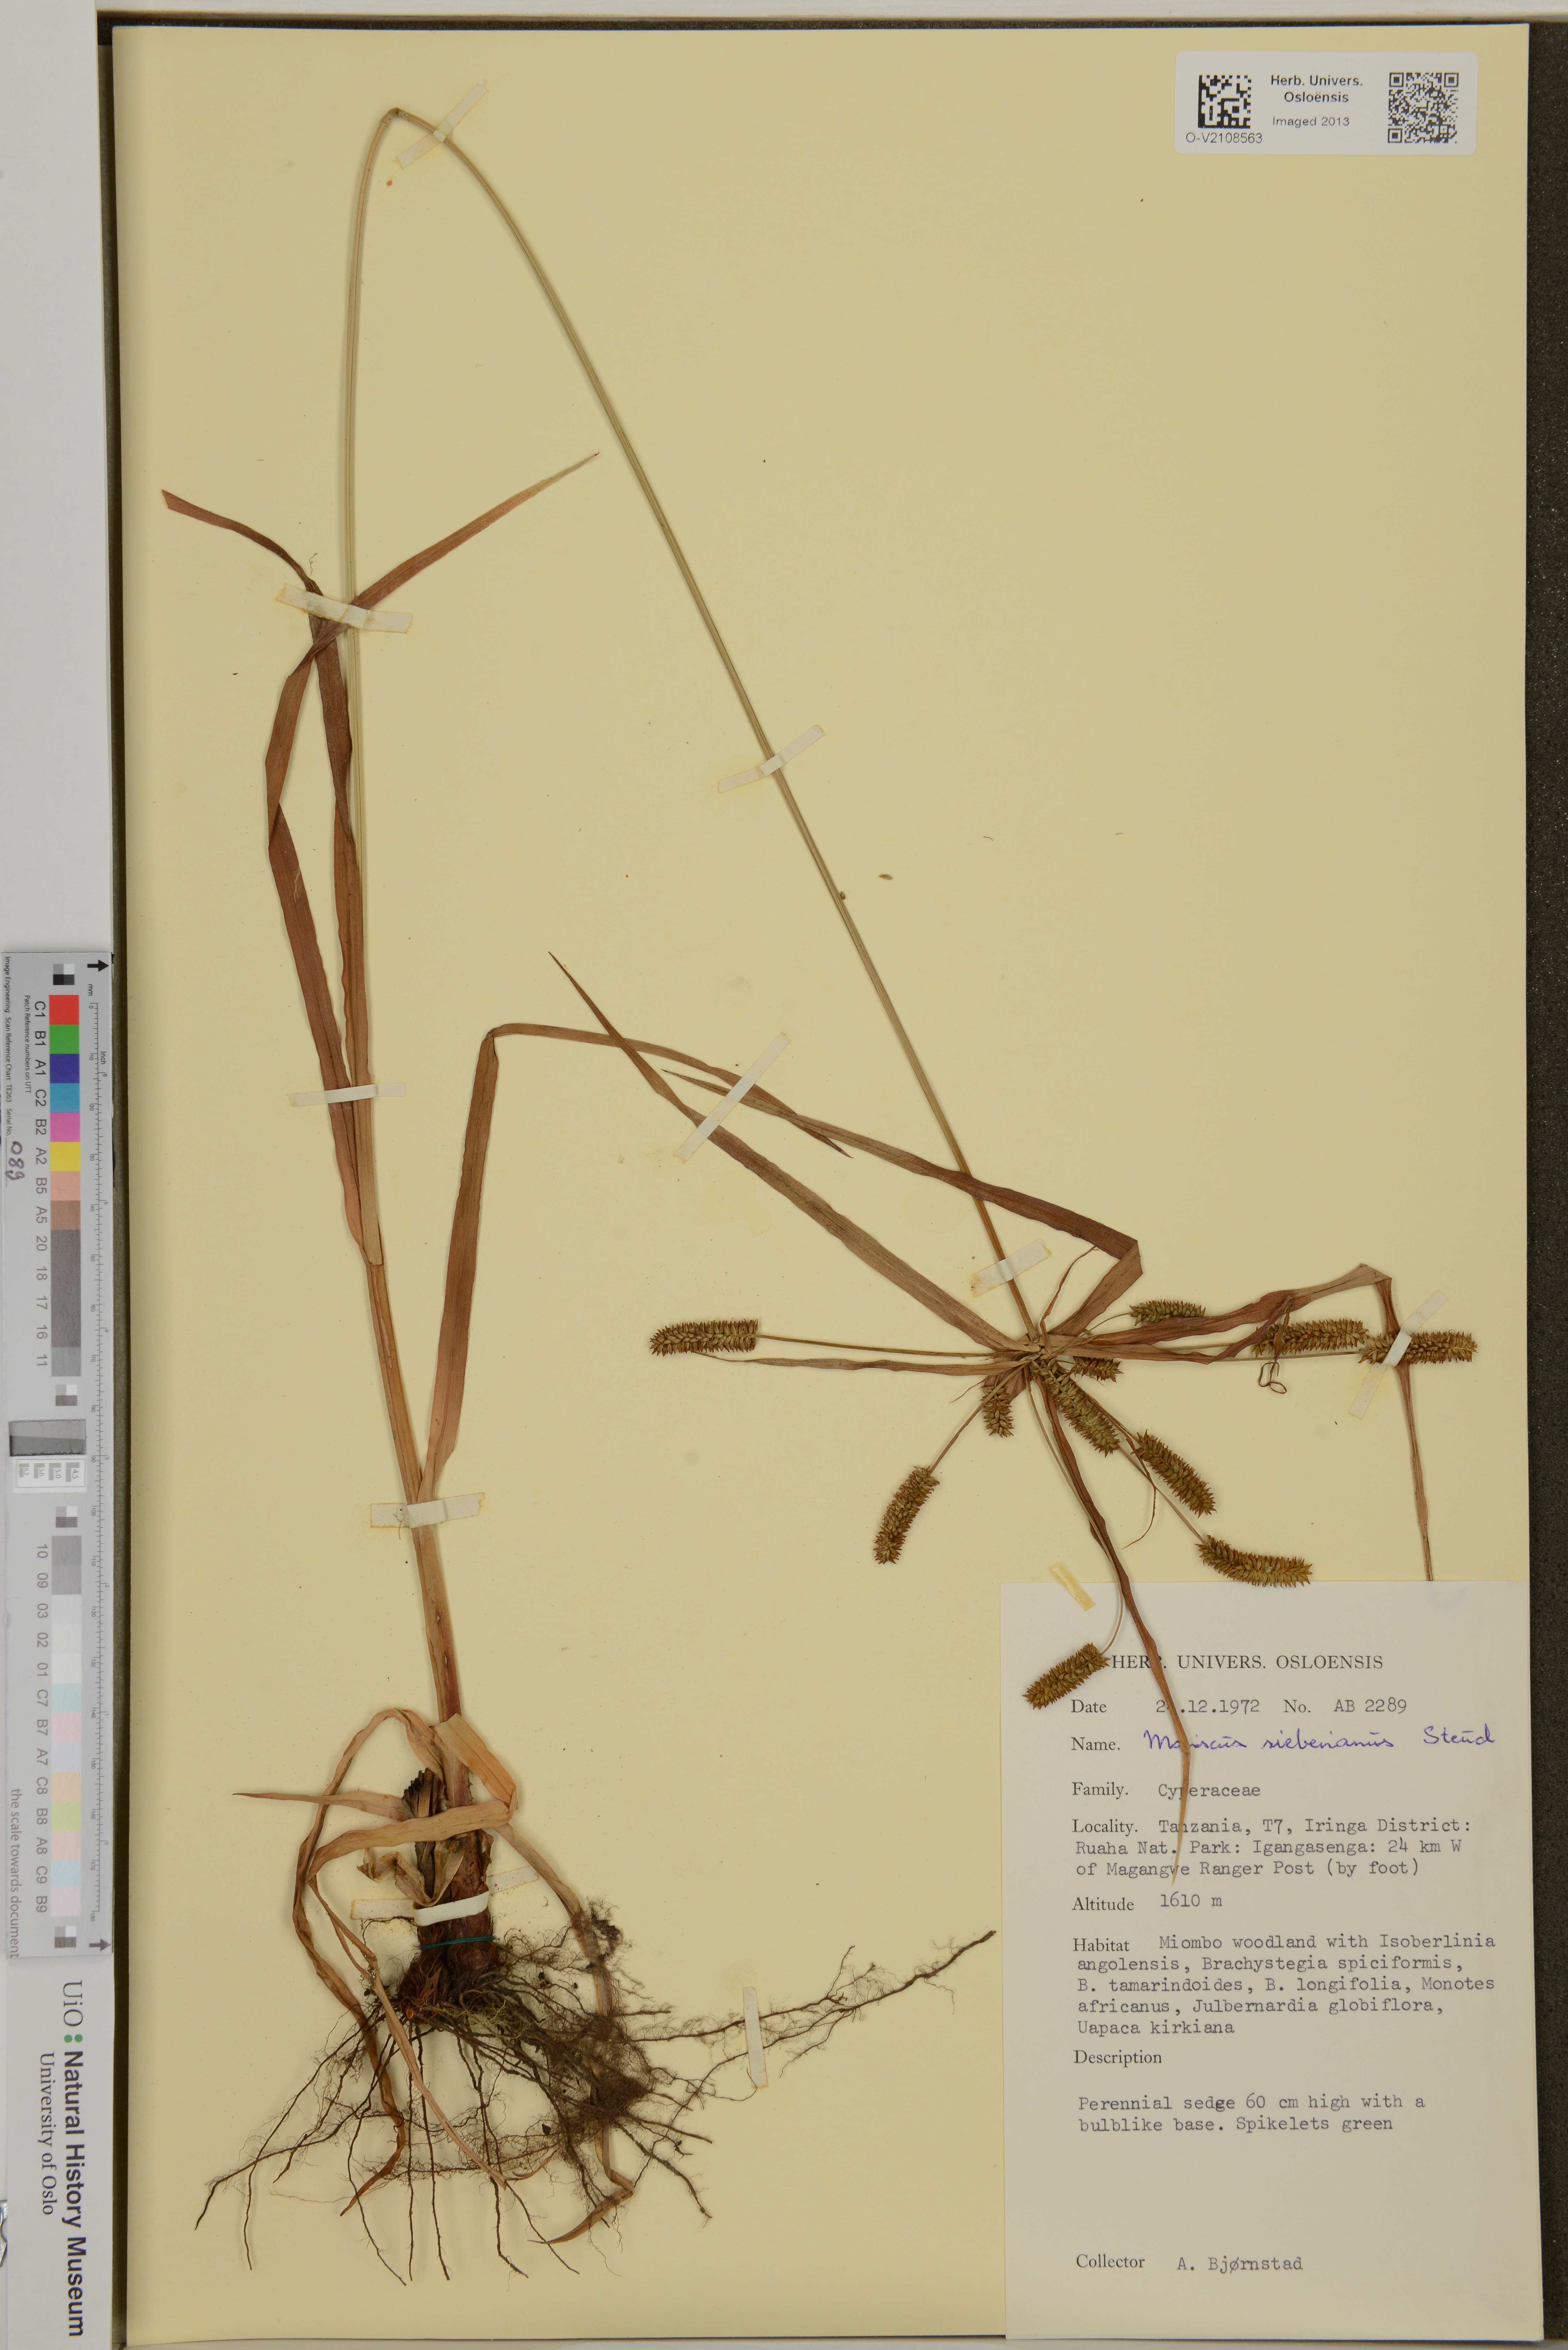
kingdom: Plantae
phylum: Tracheophyta
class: Liliopsida
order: Poales
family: Cyperaceae
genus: Cyperus
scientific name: Cyperus sieberianus
